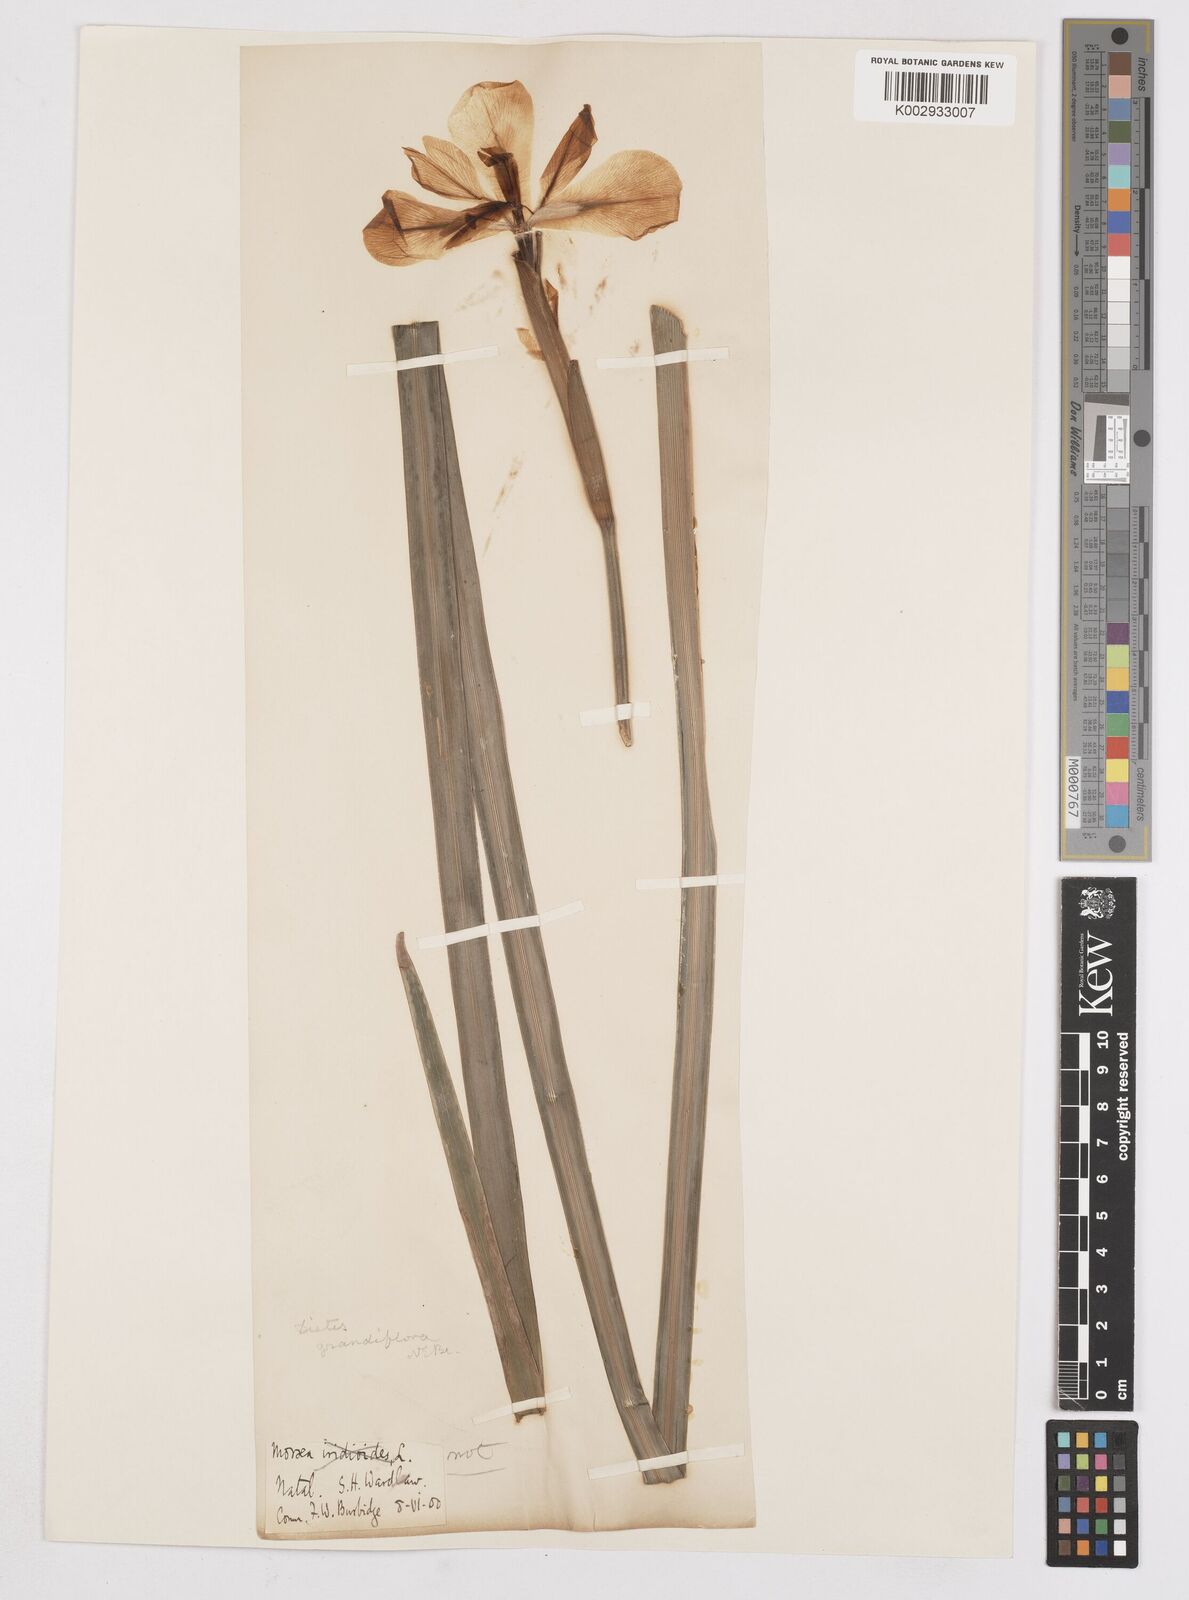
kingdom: Plantae
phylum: Tracheophyta
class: Liliopsida
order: Asparagales
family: Iridaceae
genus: Dietes
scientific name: Dietes grandiflora
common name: Wild iris
